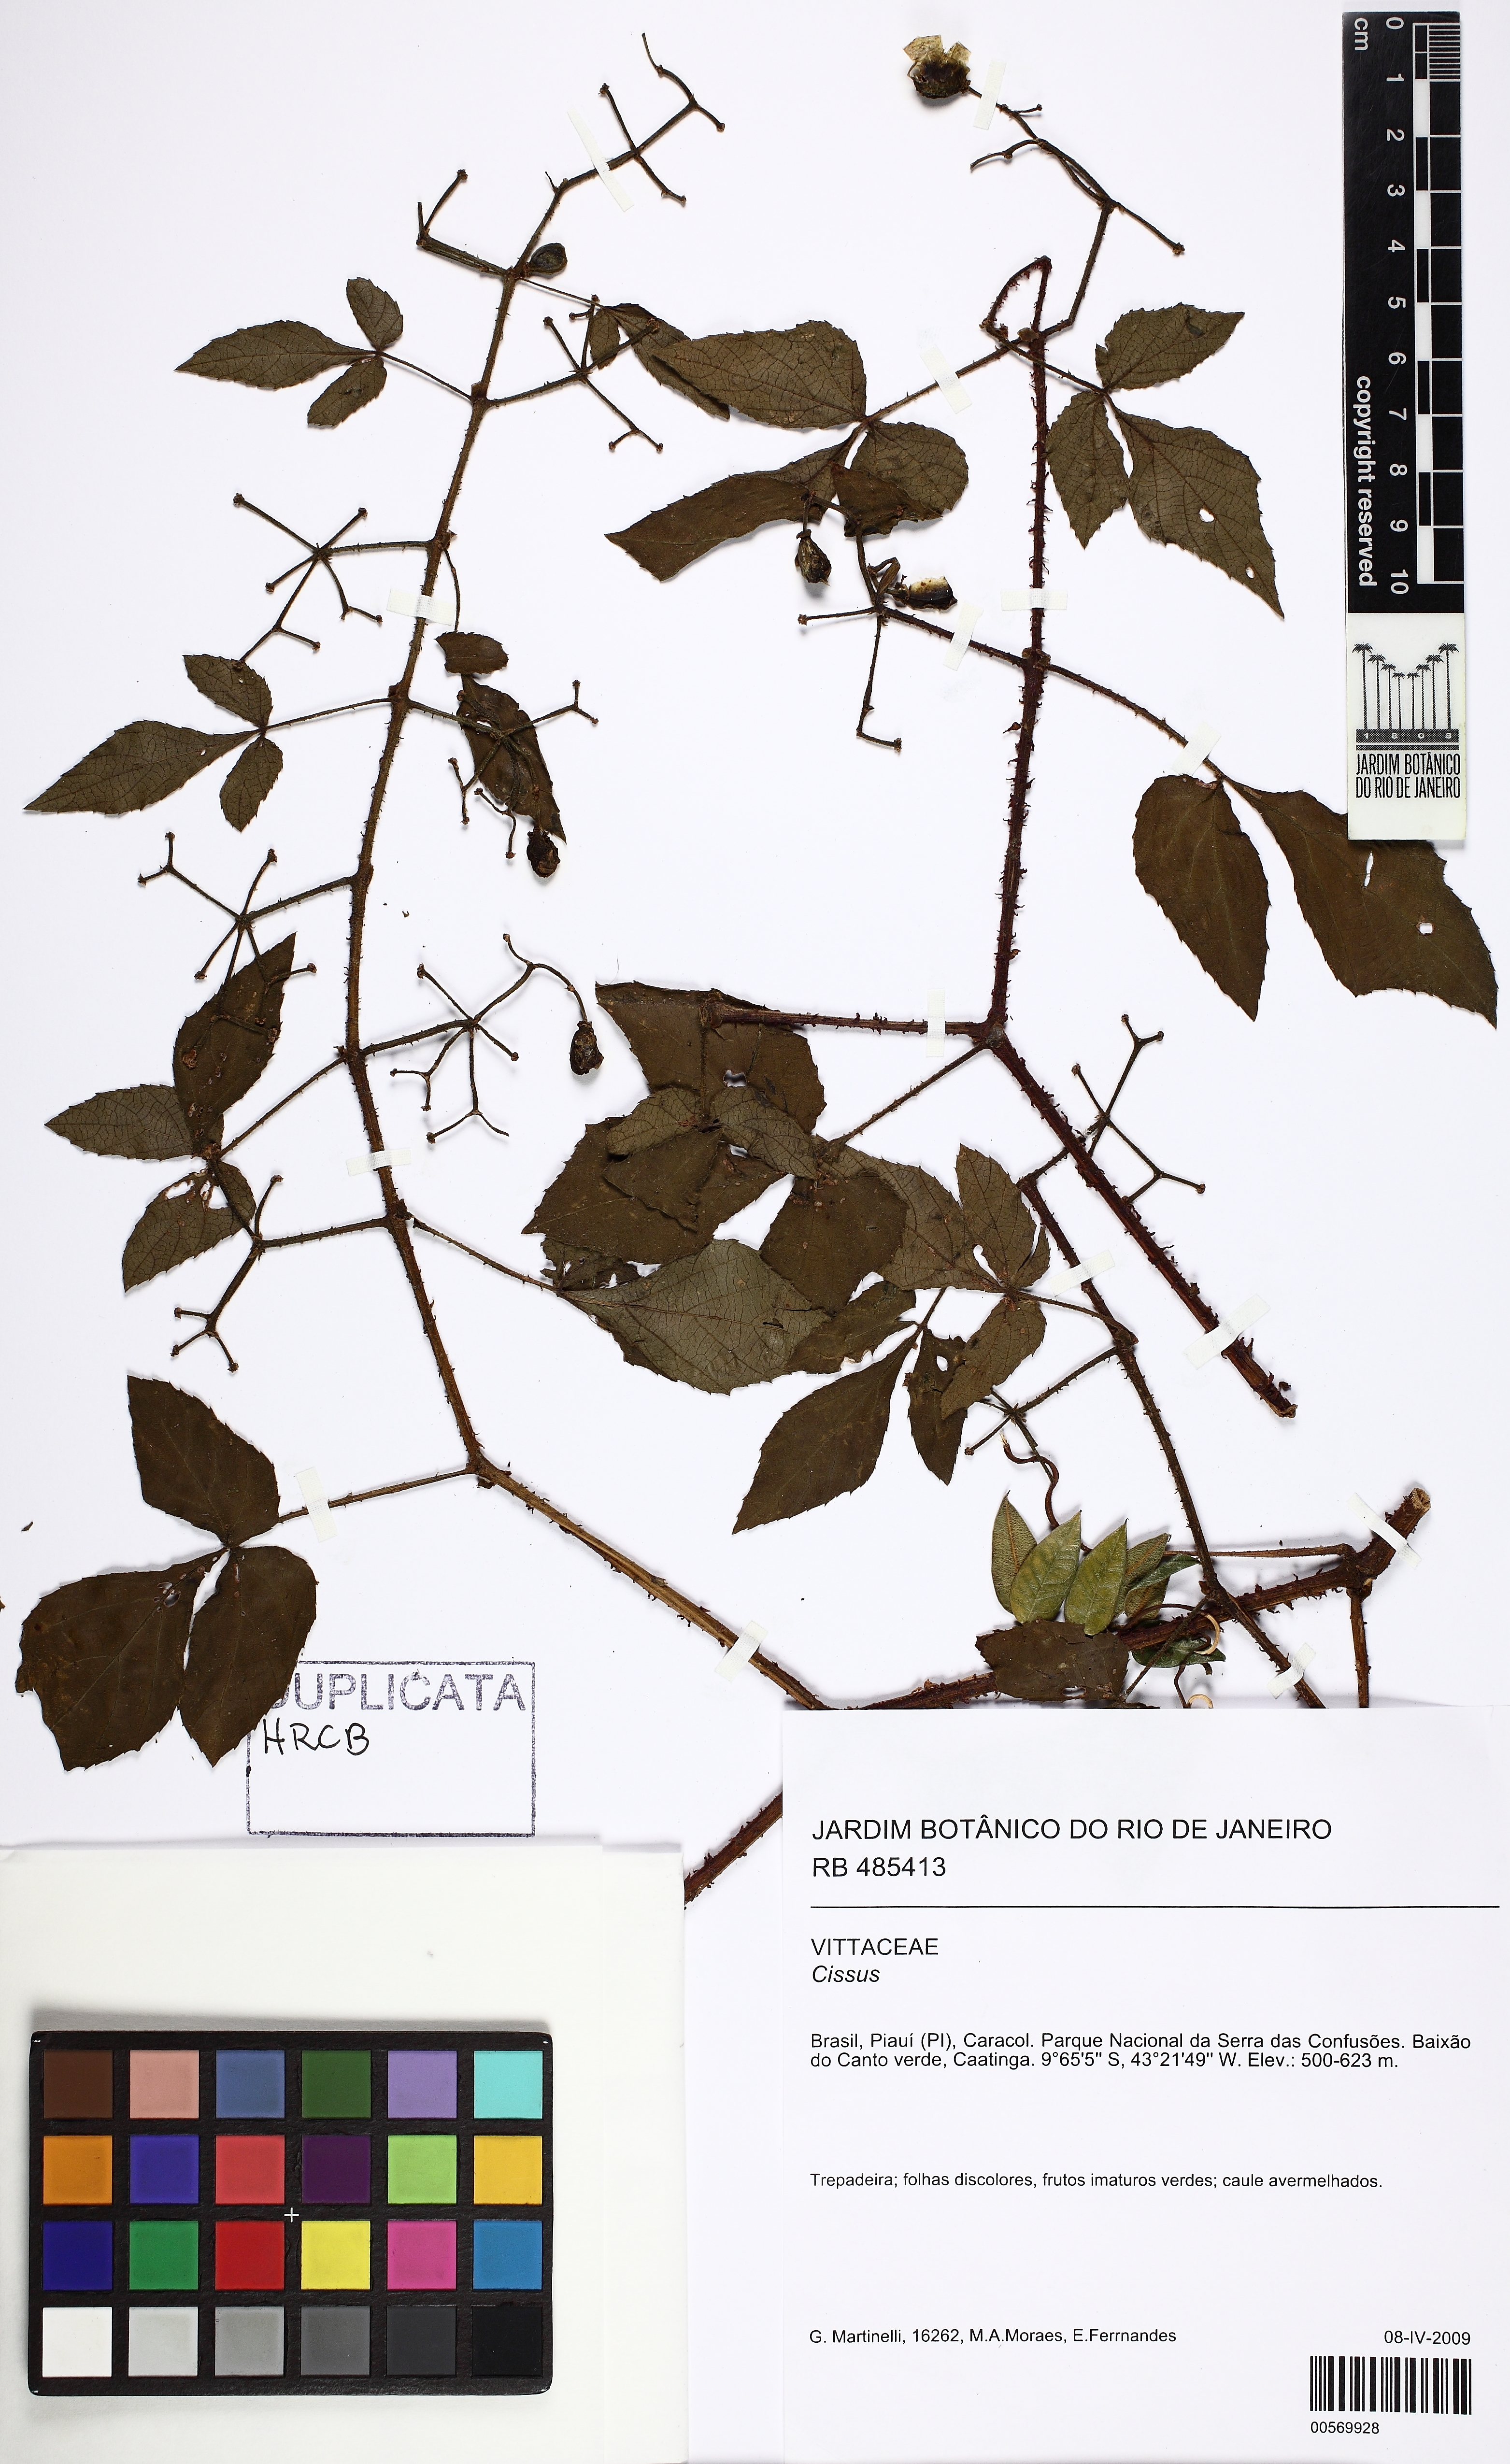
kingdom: Plantae
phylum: Tracheophyta
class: Magnoliopsida
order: Vitales
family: Vitaceae
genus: Cissus
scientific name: Cissus
